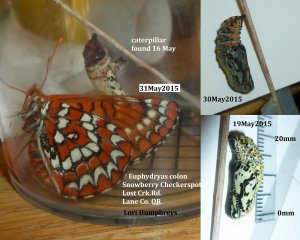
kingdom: Animalia
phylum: Arthropoda
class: Insecta
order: Lepidoptera
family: Nymphalidae
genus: Occidryas
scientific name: Occidryas colon
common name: Snowberry Checkerspot
